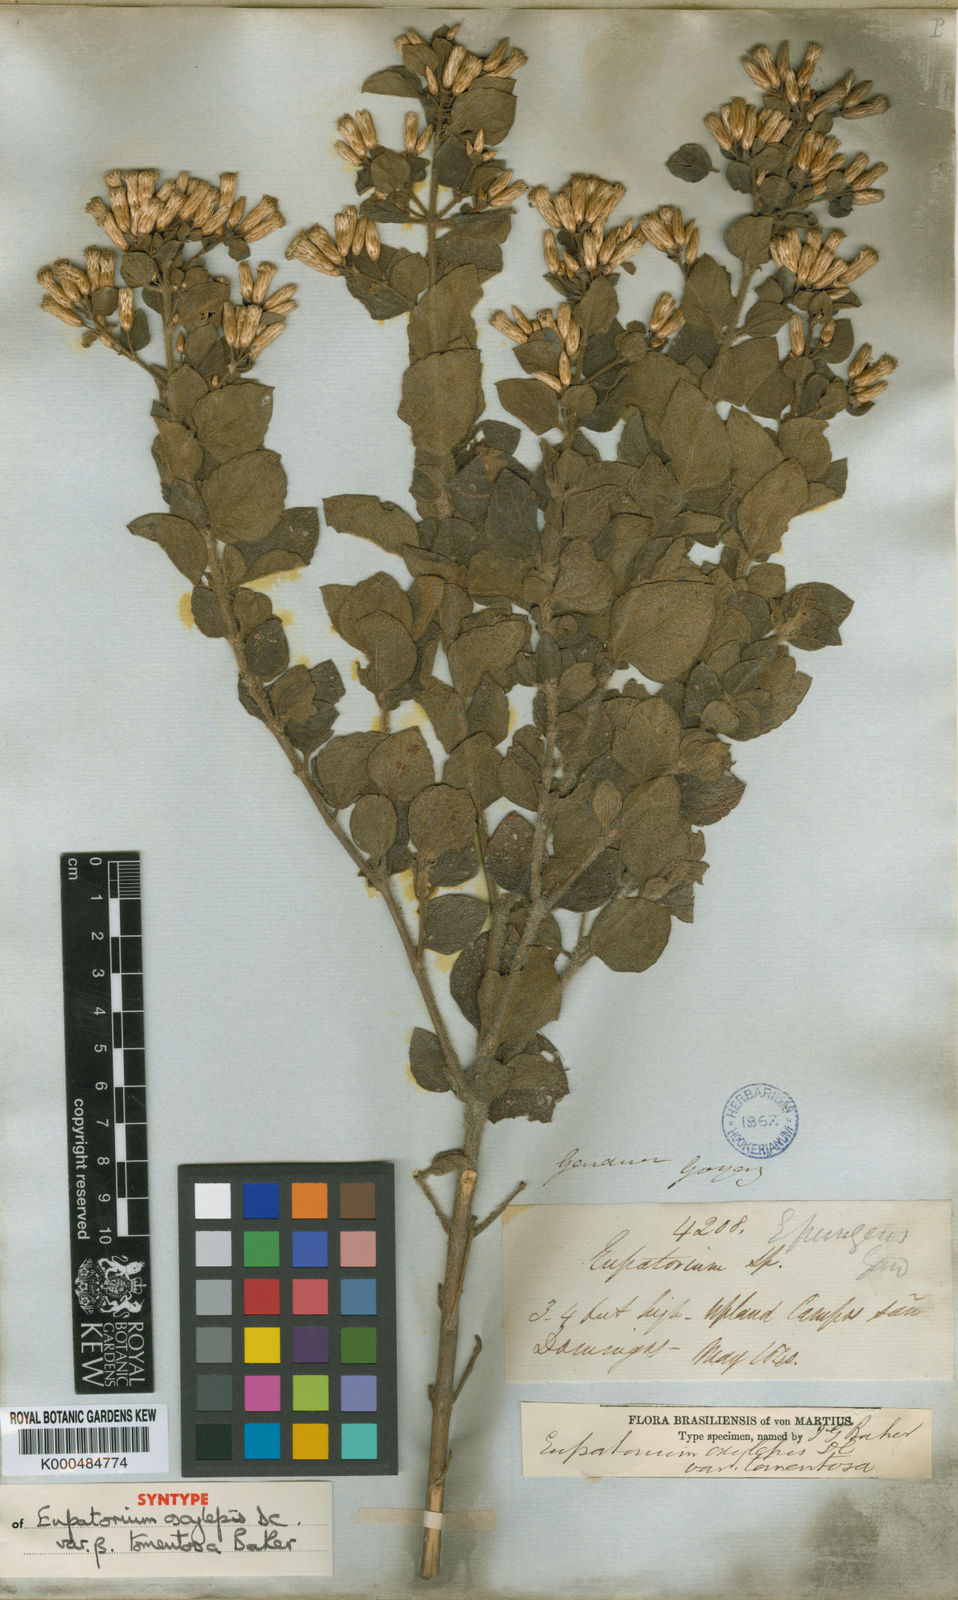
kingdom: Plantae
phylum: Tracheophyta
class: Magnoliopsida
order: Asterales
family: Asteraceae
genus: Chromolaena
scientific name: Chromolaena pungens
